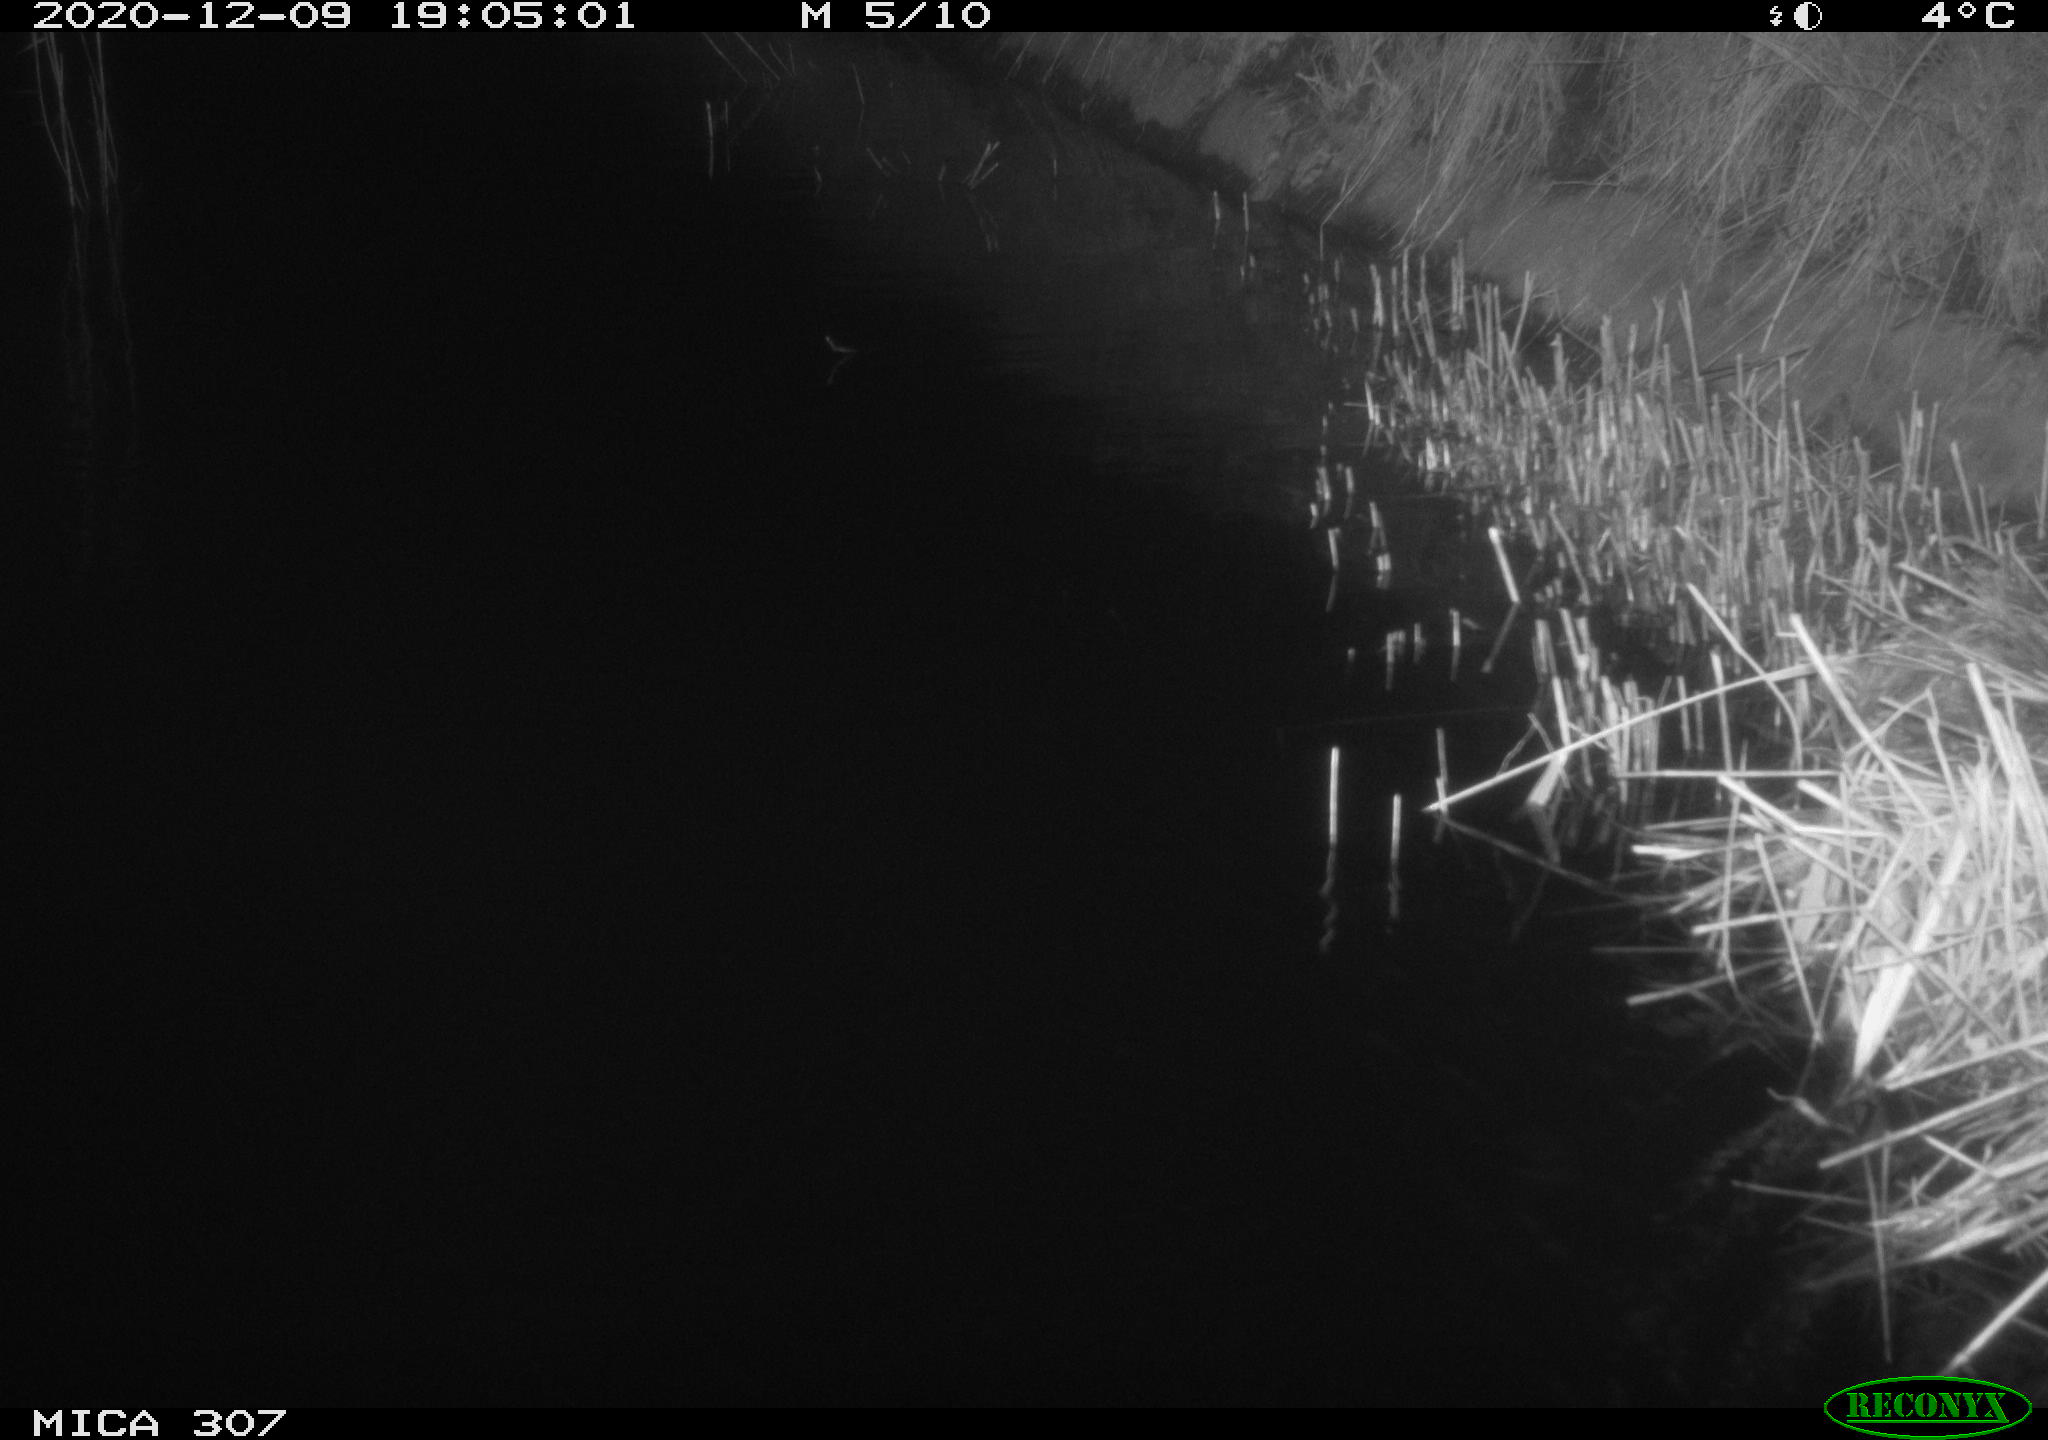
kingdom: Animalia
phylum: Chordata
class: Mammalia
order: Rodentia
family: Muridae
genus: Rattus
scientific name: Rattus norvegicus
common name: Brown rat
